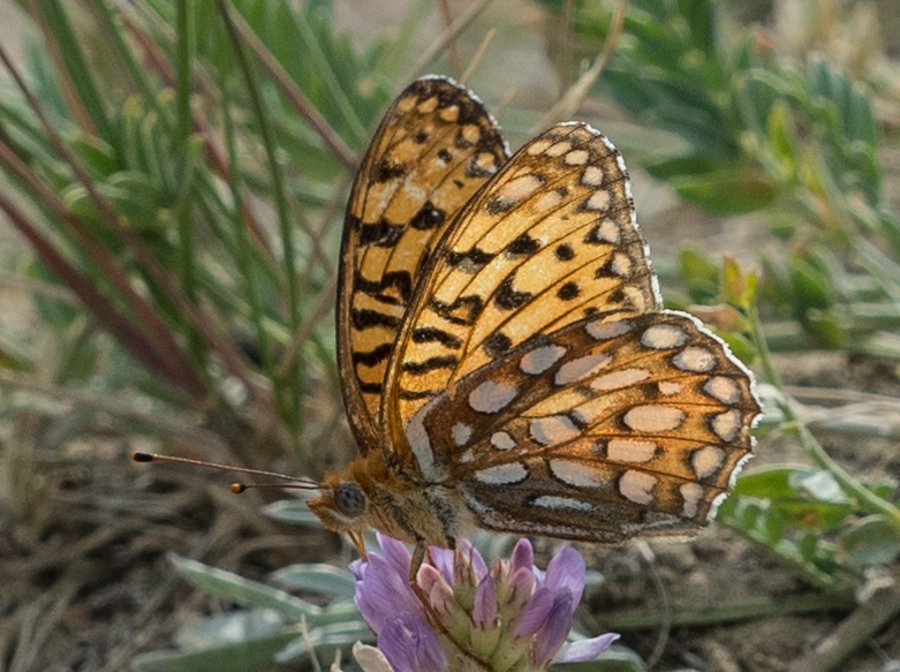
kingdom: Animalia
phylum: Arthropoda
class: Insecta
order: Lepidoptera
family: Nymphalidae
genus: Speyeria
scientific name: Speyeria mormonia
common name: Mormon Fritillary
